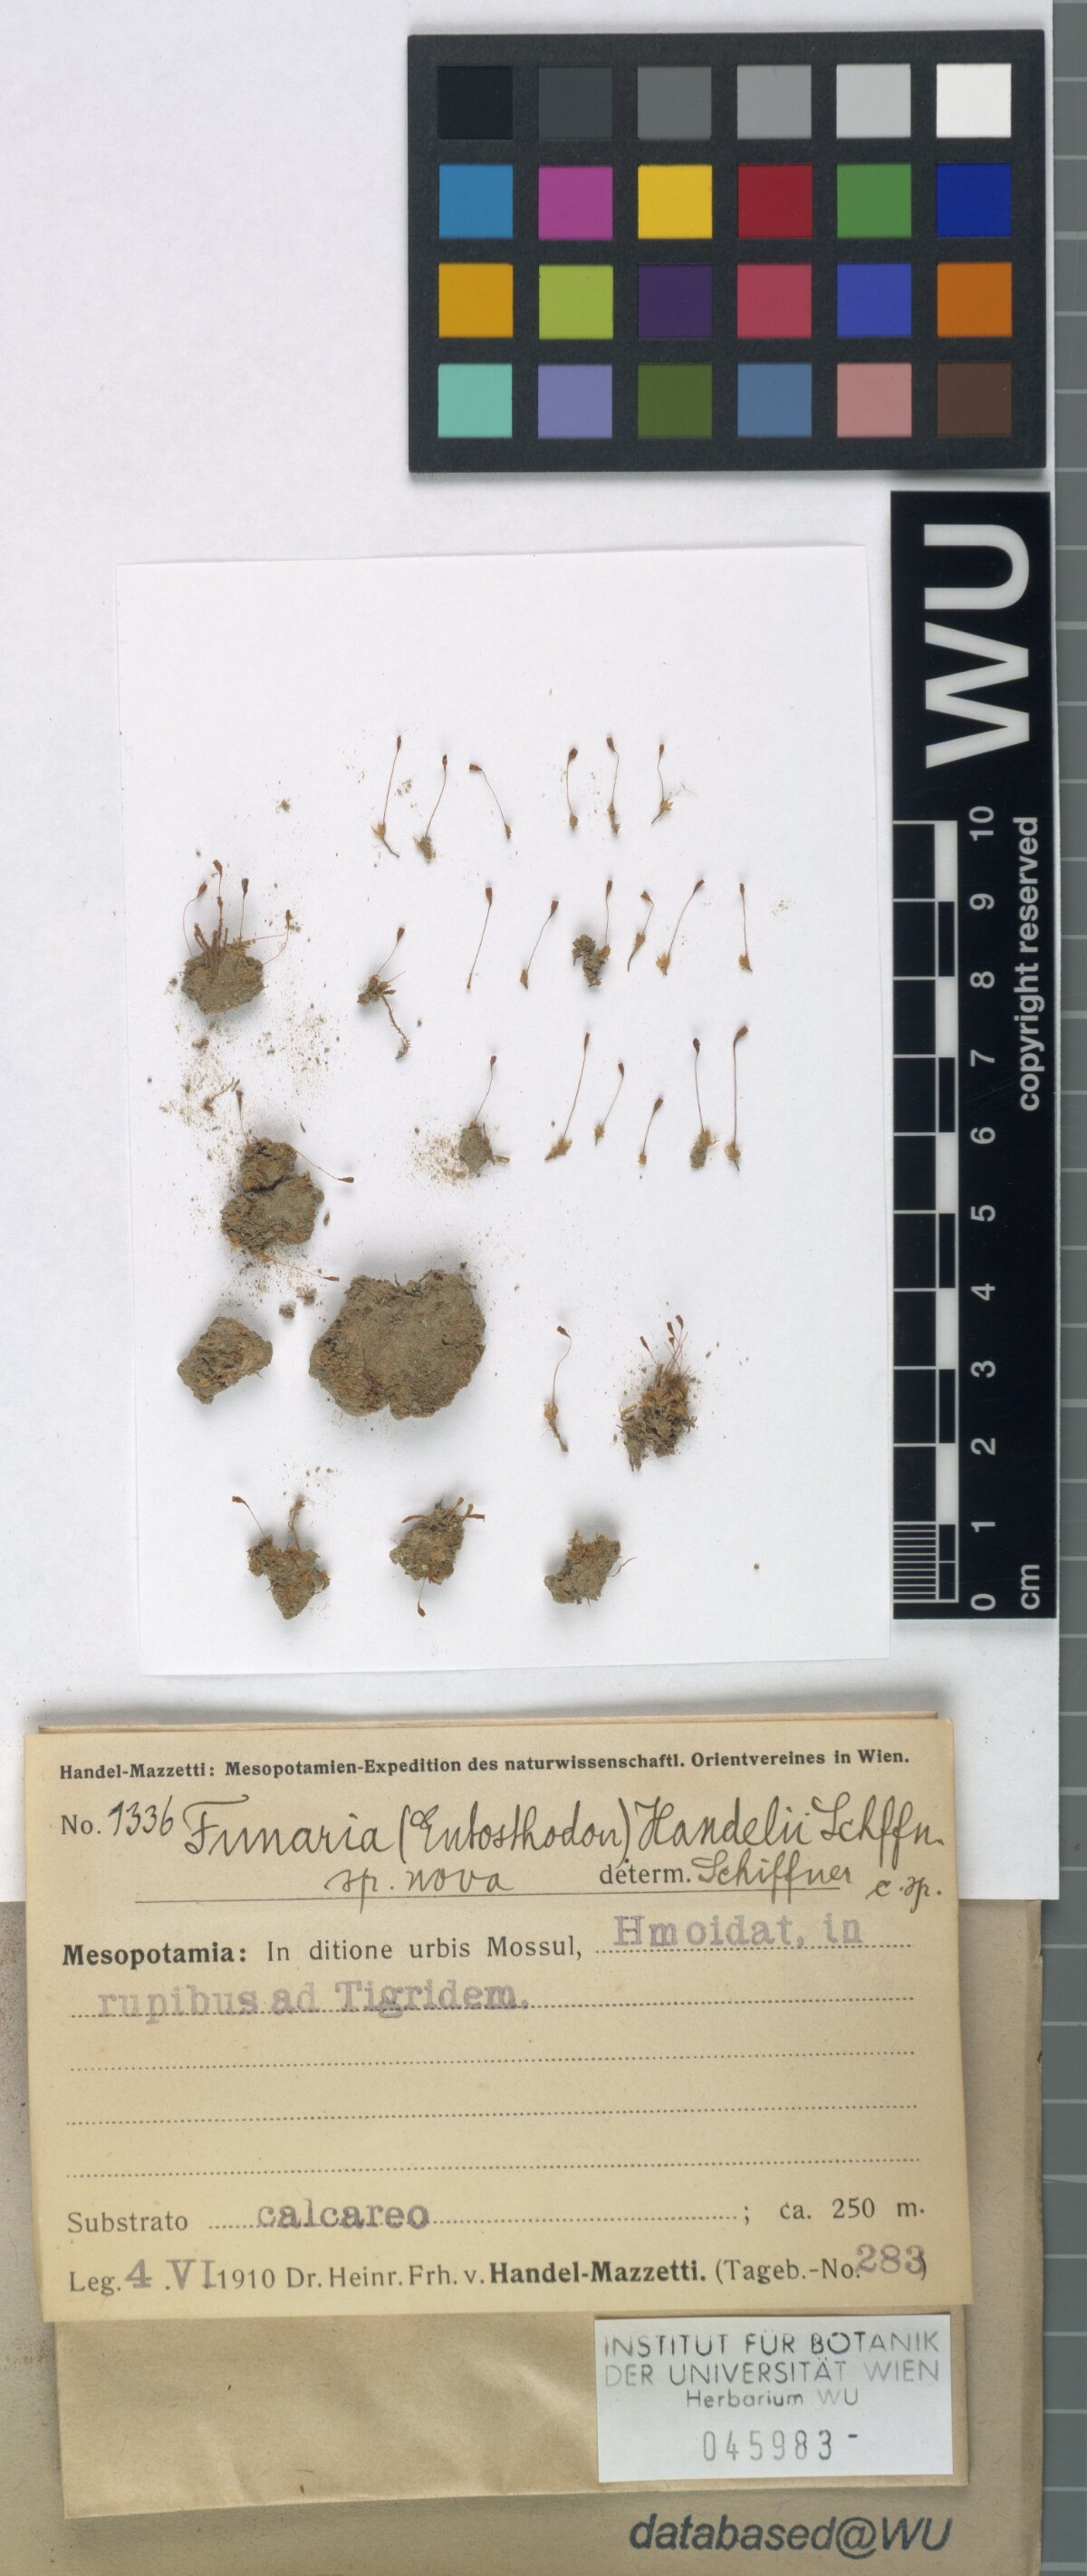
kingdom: Plantae
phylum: Bryophyta
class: Bryopsida
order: Funariales
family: Funariaceae
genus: Entosthodon
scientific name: Entosthodon handelii
